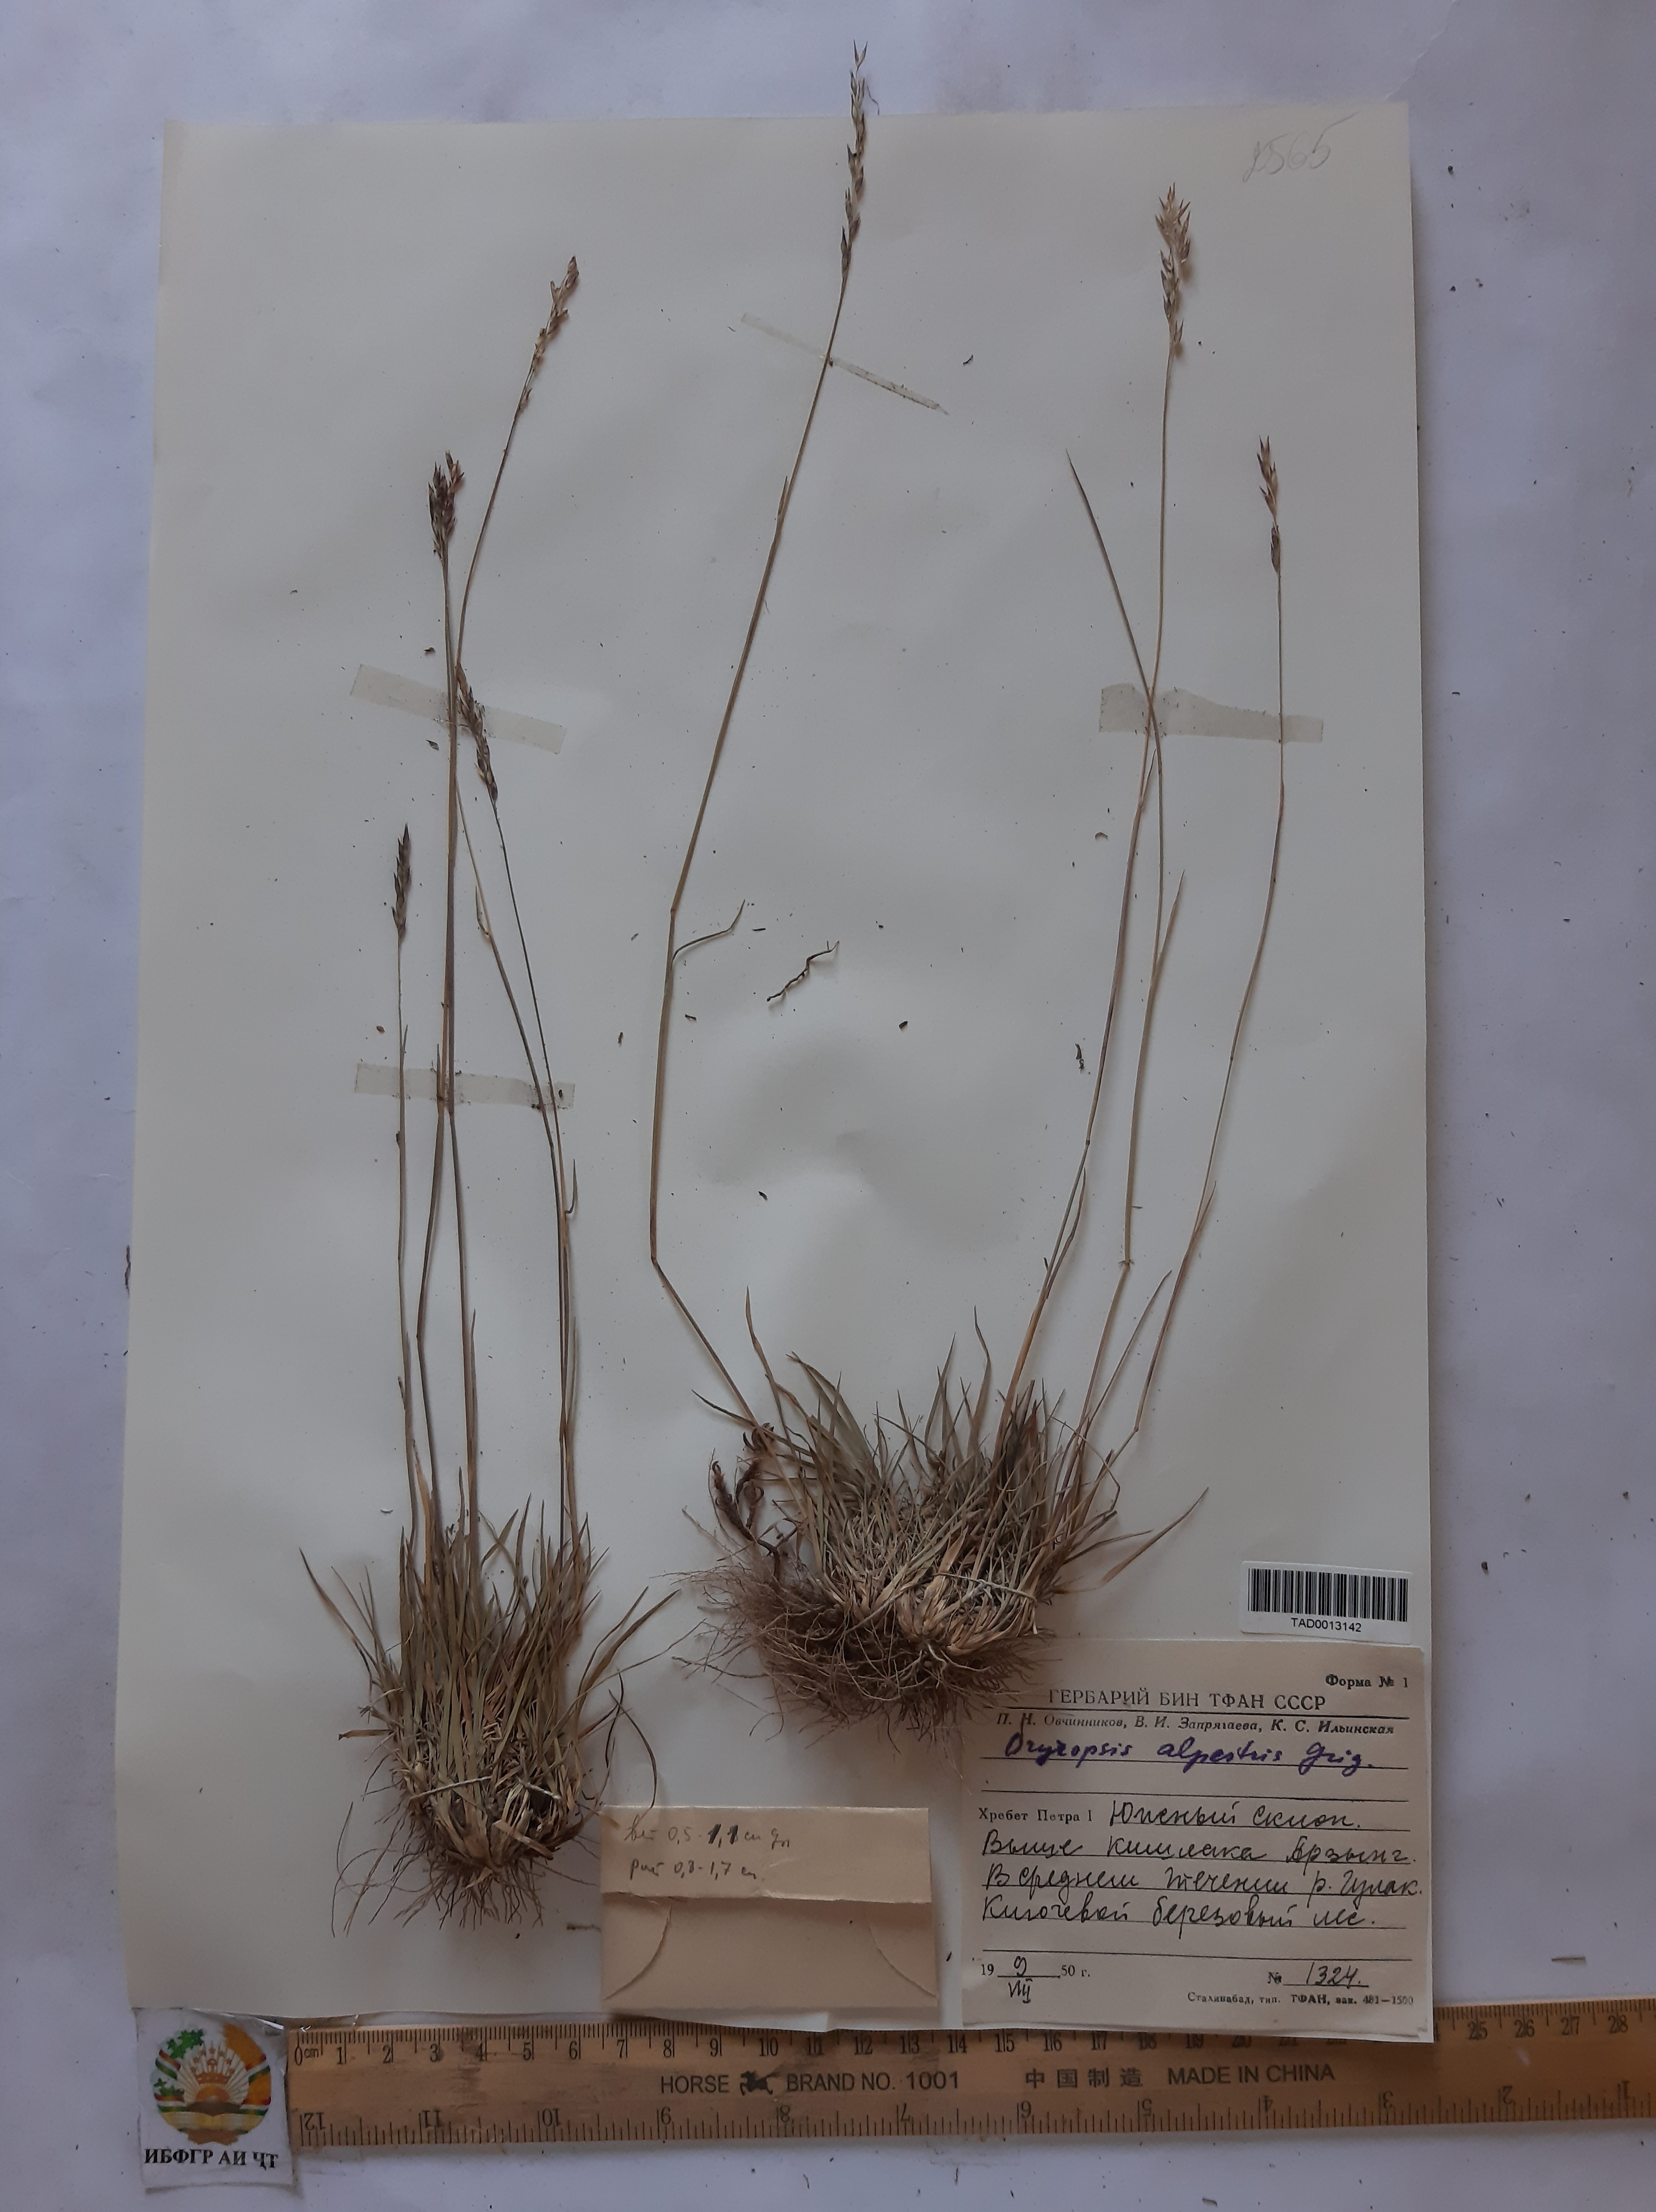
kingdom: Plantae
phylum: Tracheophyta
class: Liliopsida
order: Poales
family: Poaceae
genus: Piptatherum
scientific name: Piptatherum alpestre
